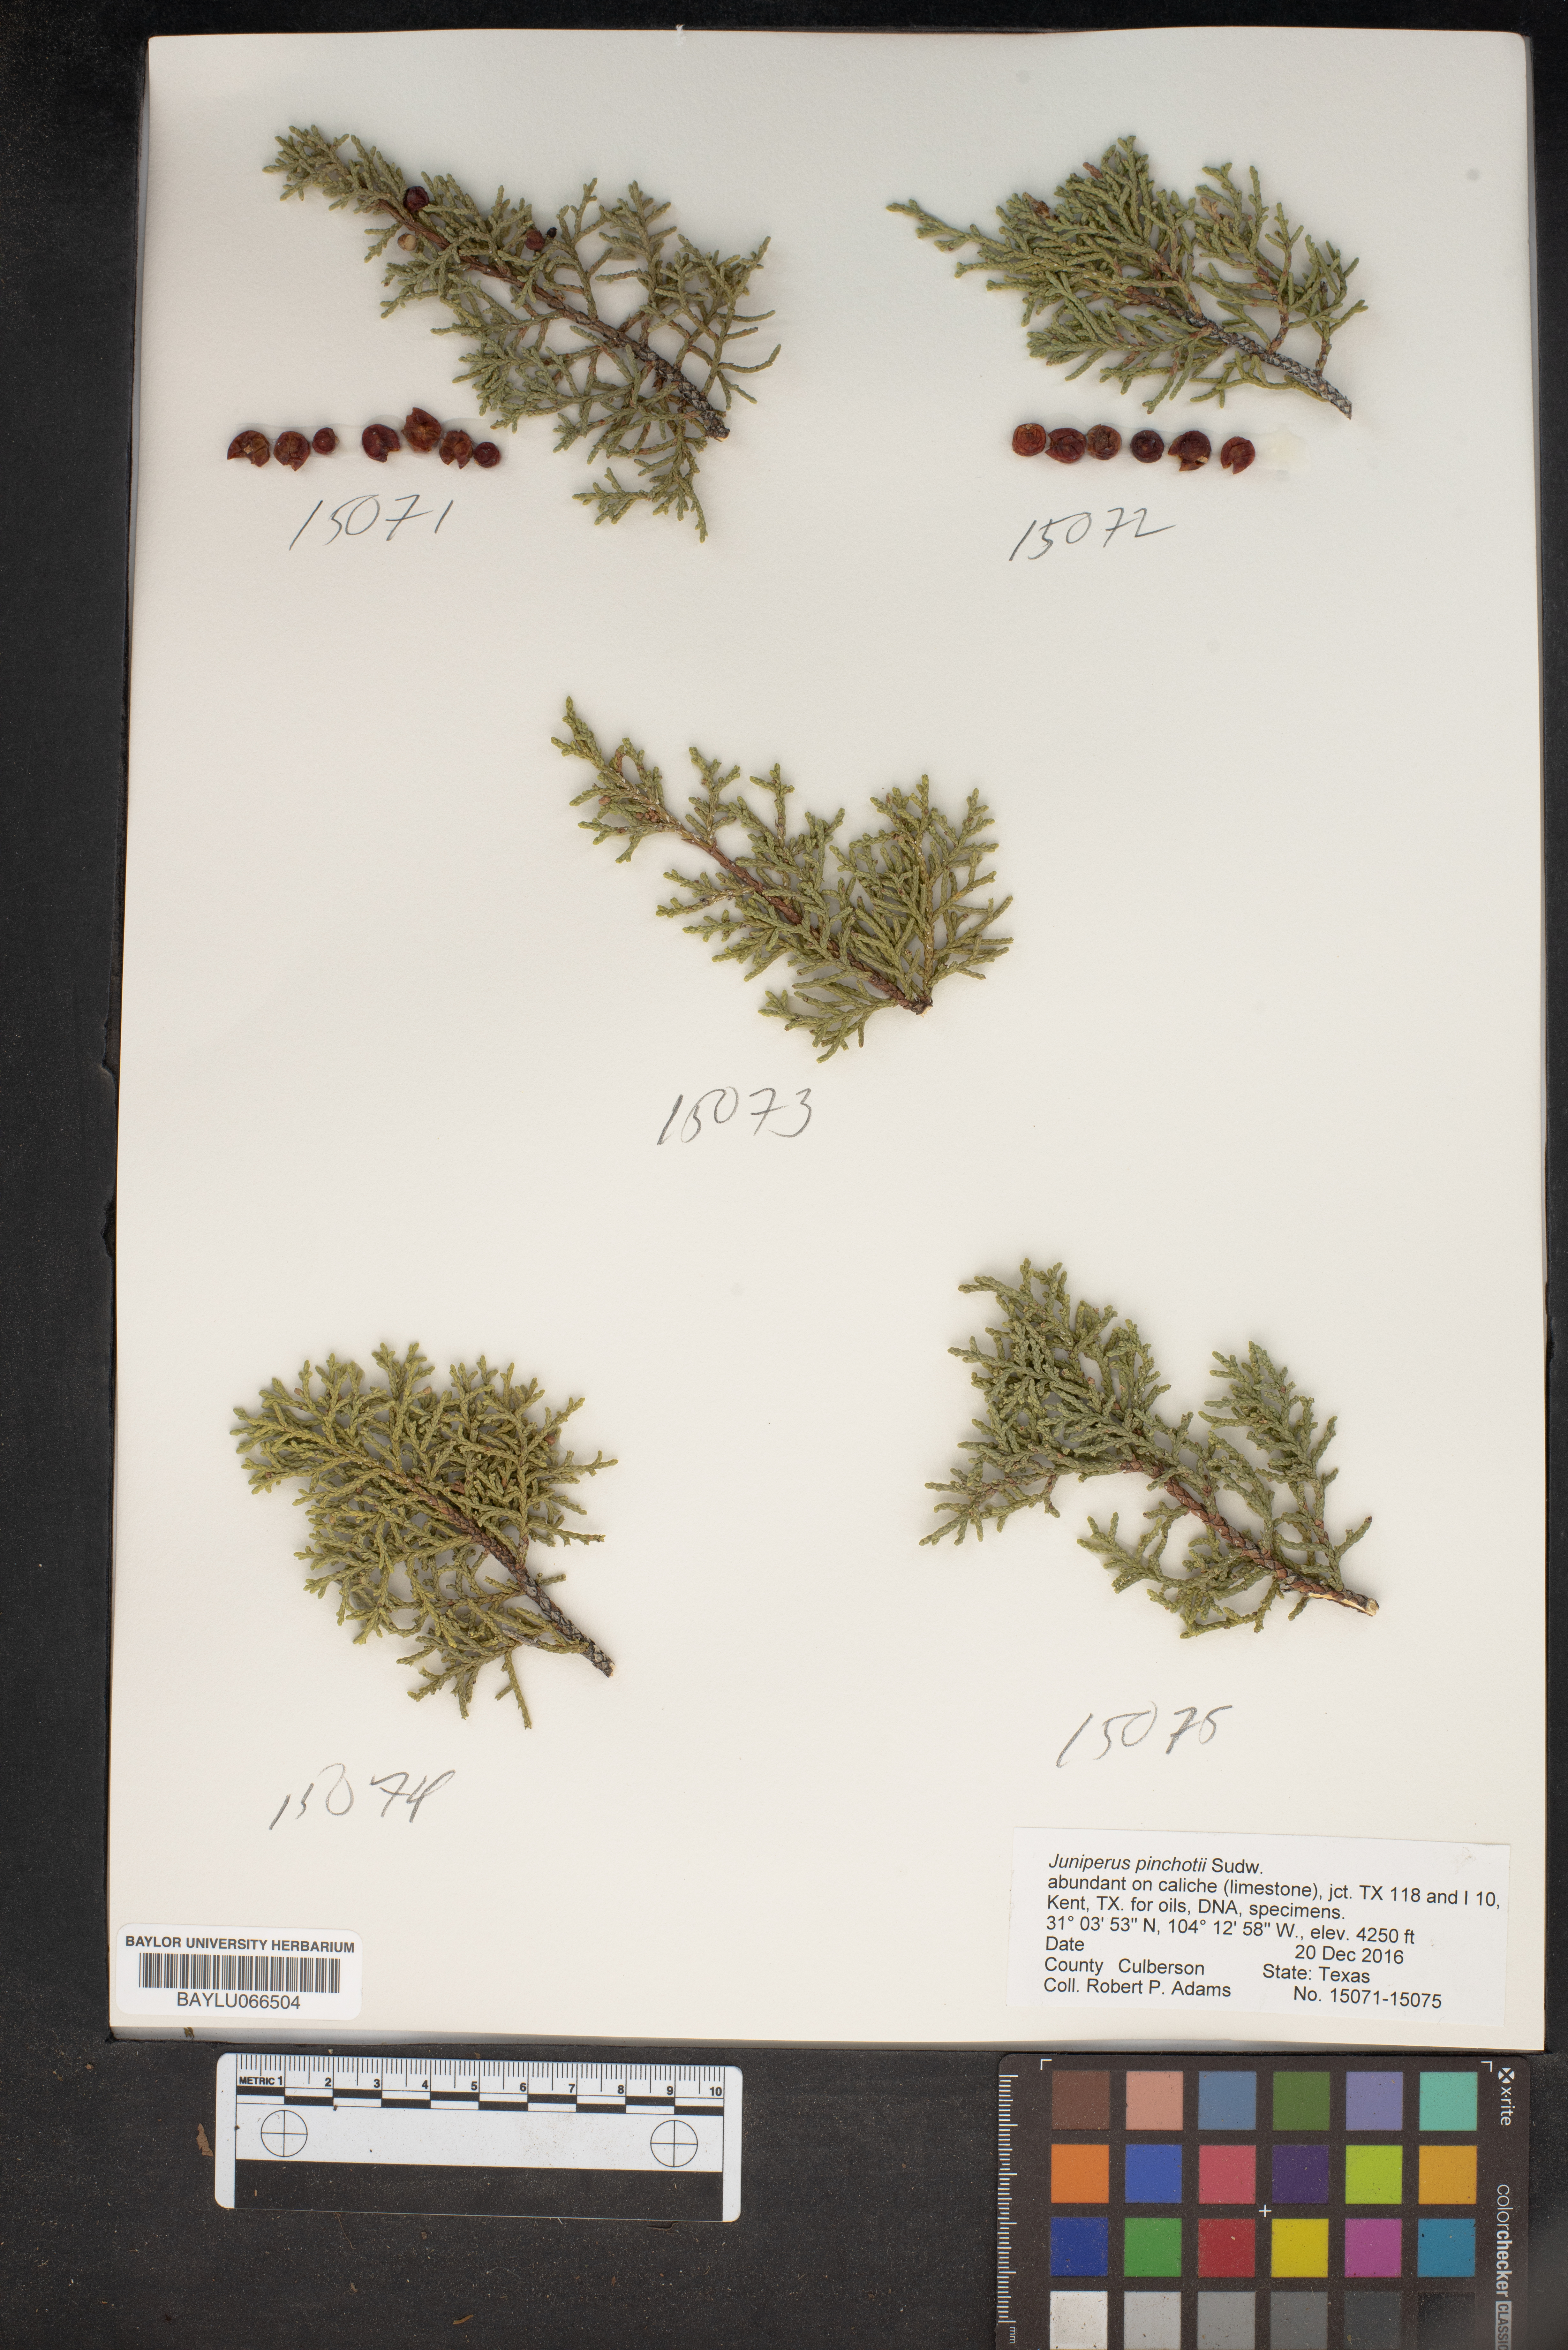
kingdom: Plantae
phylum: Tracheophyta
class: Pinopsida
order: Pinales
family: Cupressaceae
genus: Juniperus
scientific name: Juniperus pinchotii
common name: Pinchot juniper
